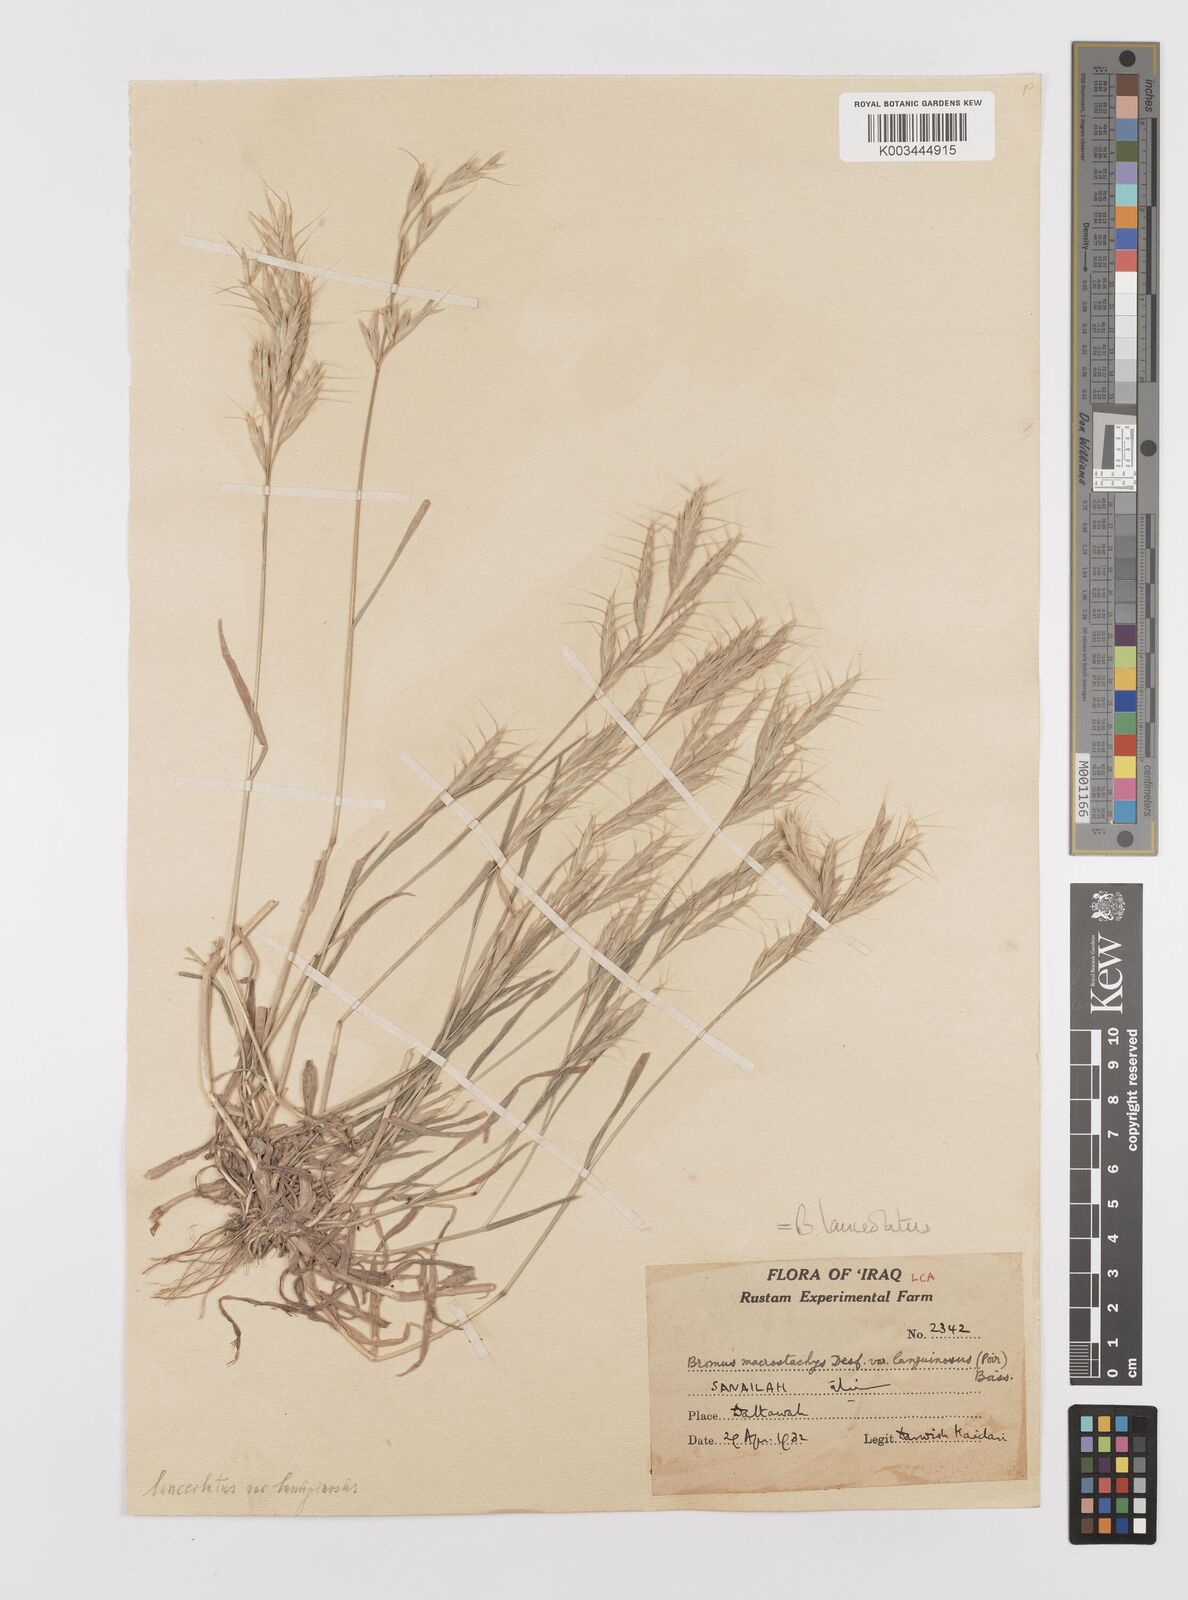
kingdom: Plantae
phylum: Tracheophyta
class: Liliopsida
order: Poales
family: Poaceae
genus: Bromus
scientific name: Bromus lanceolatus
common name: Mediterranean brome
